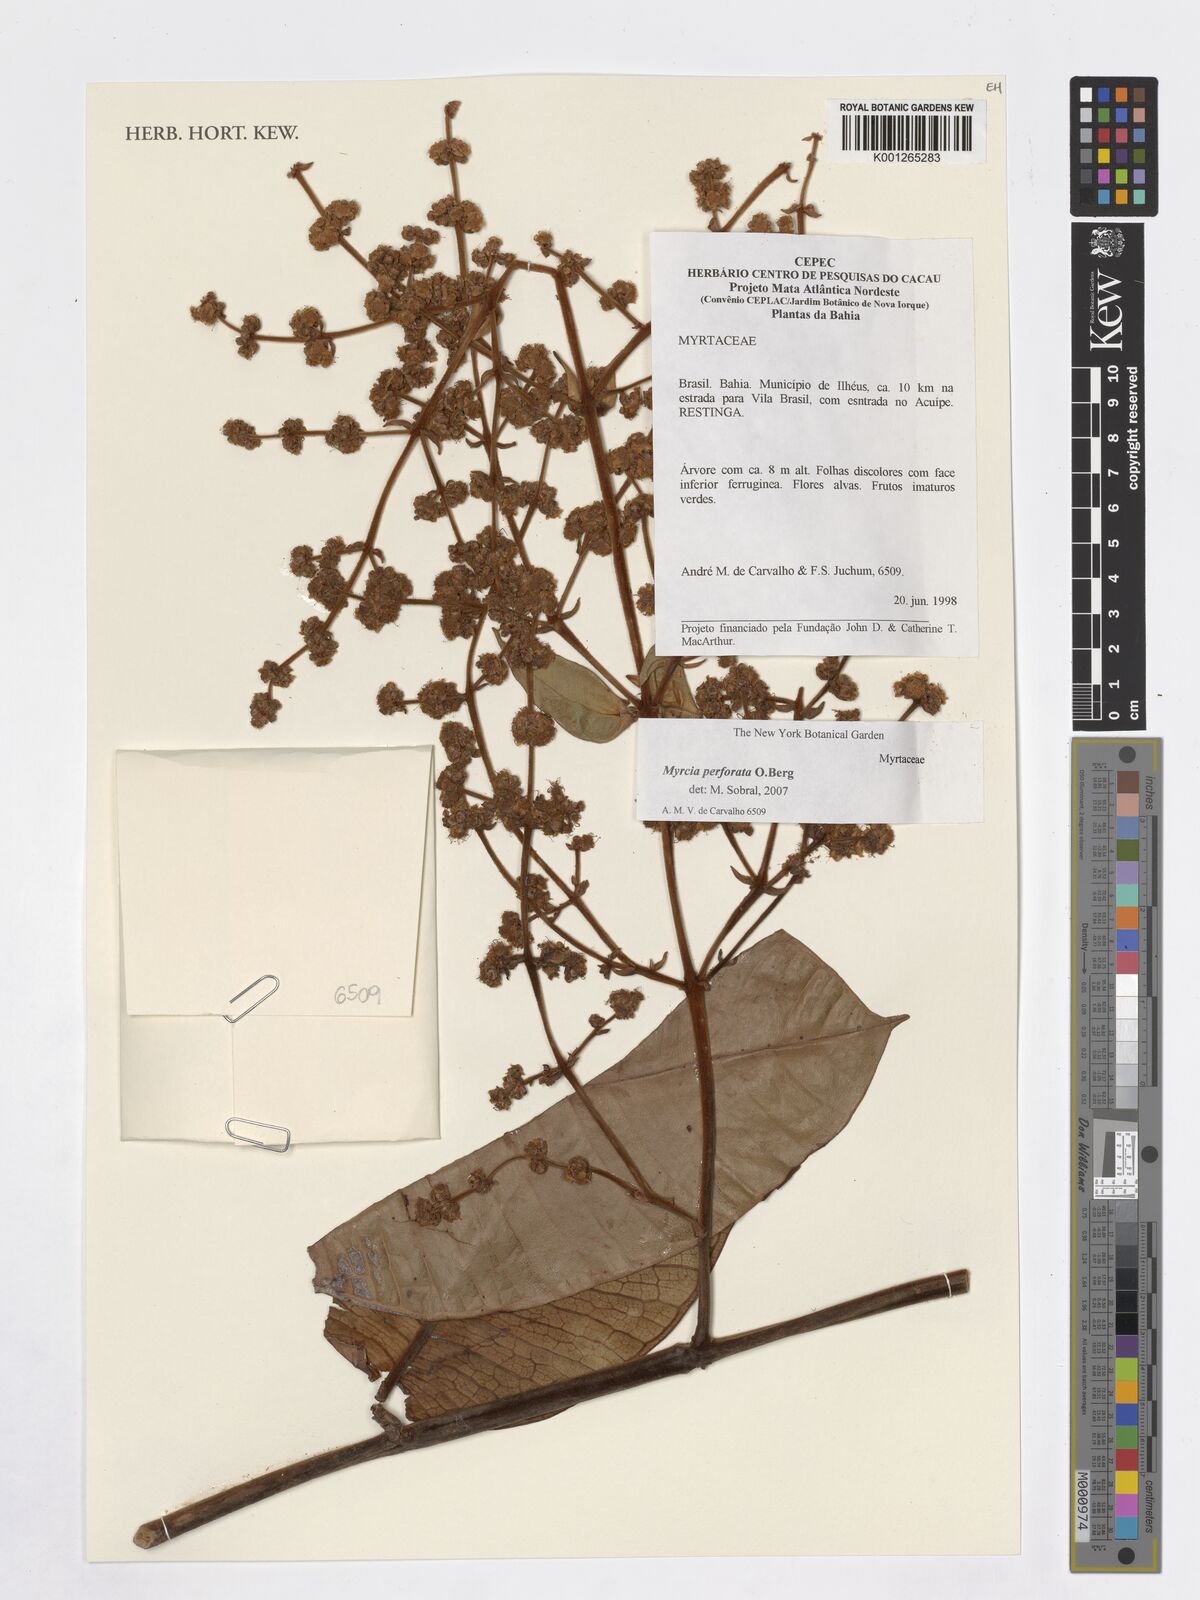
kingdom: Plantae
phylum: Tracheophyta
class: Magnoliopsida
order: Myrtales
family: Myrtaceae
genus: Myrcia
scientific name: Myrcia perforata
